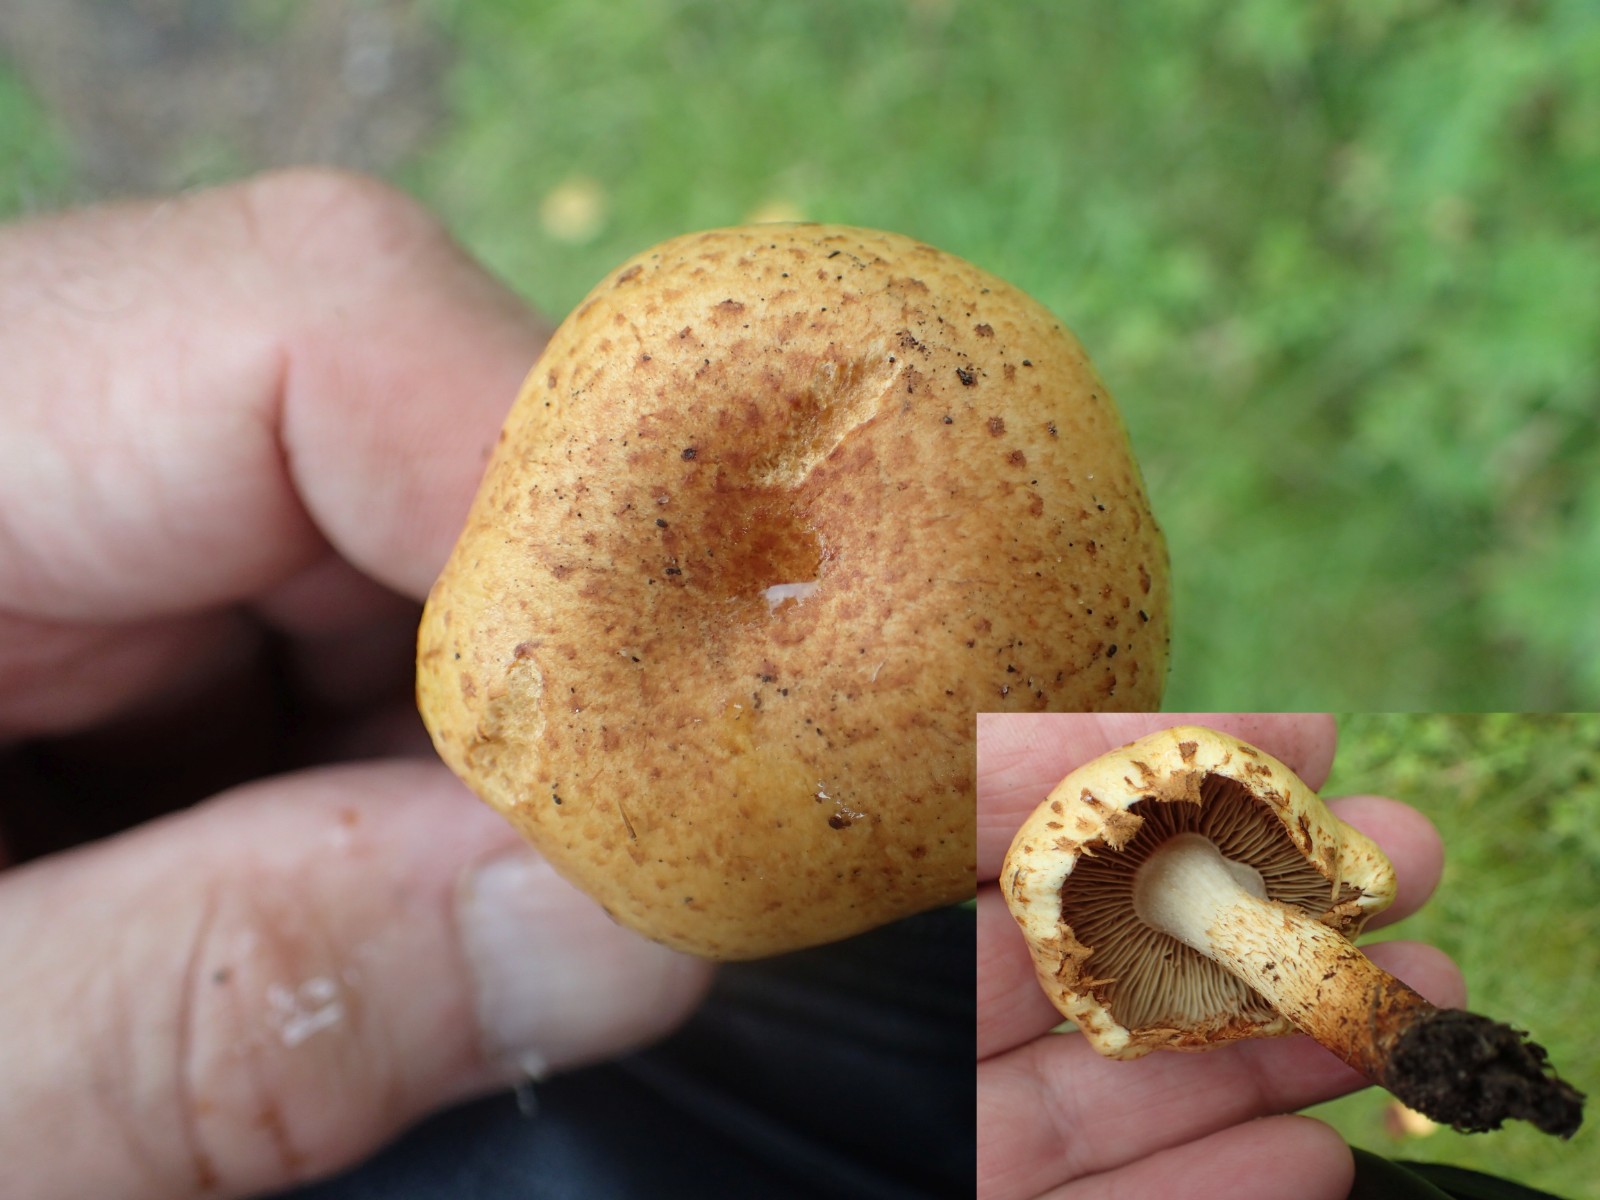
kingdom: Fungi
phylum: Basidiomycota
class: Agaricomycetes
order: Agaricales
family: Strophariaceae
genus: Pholiota
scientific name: Pholiota
